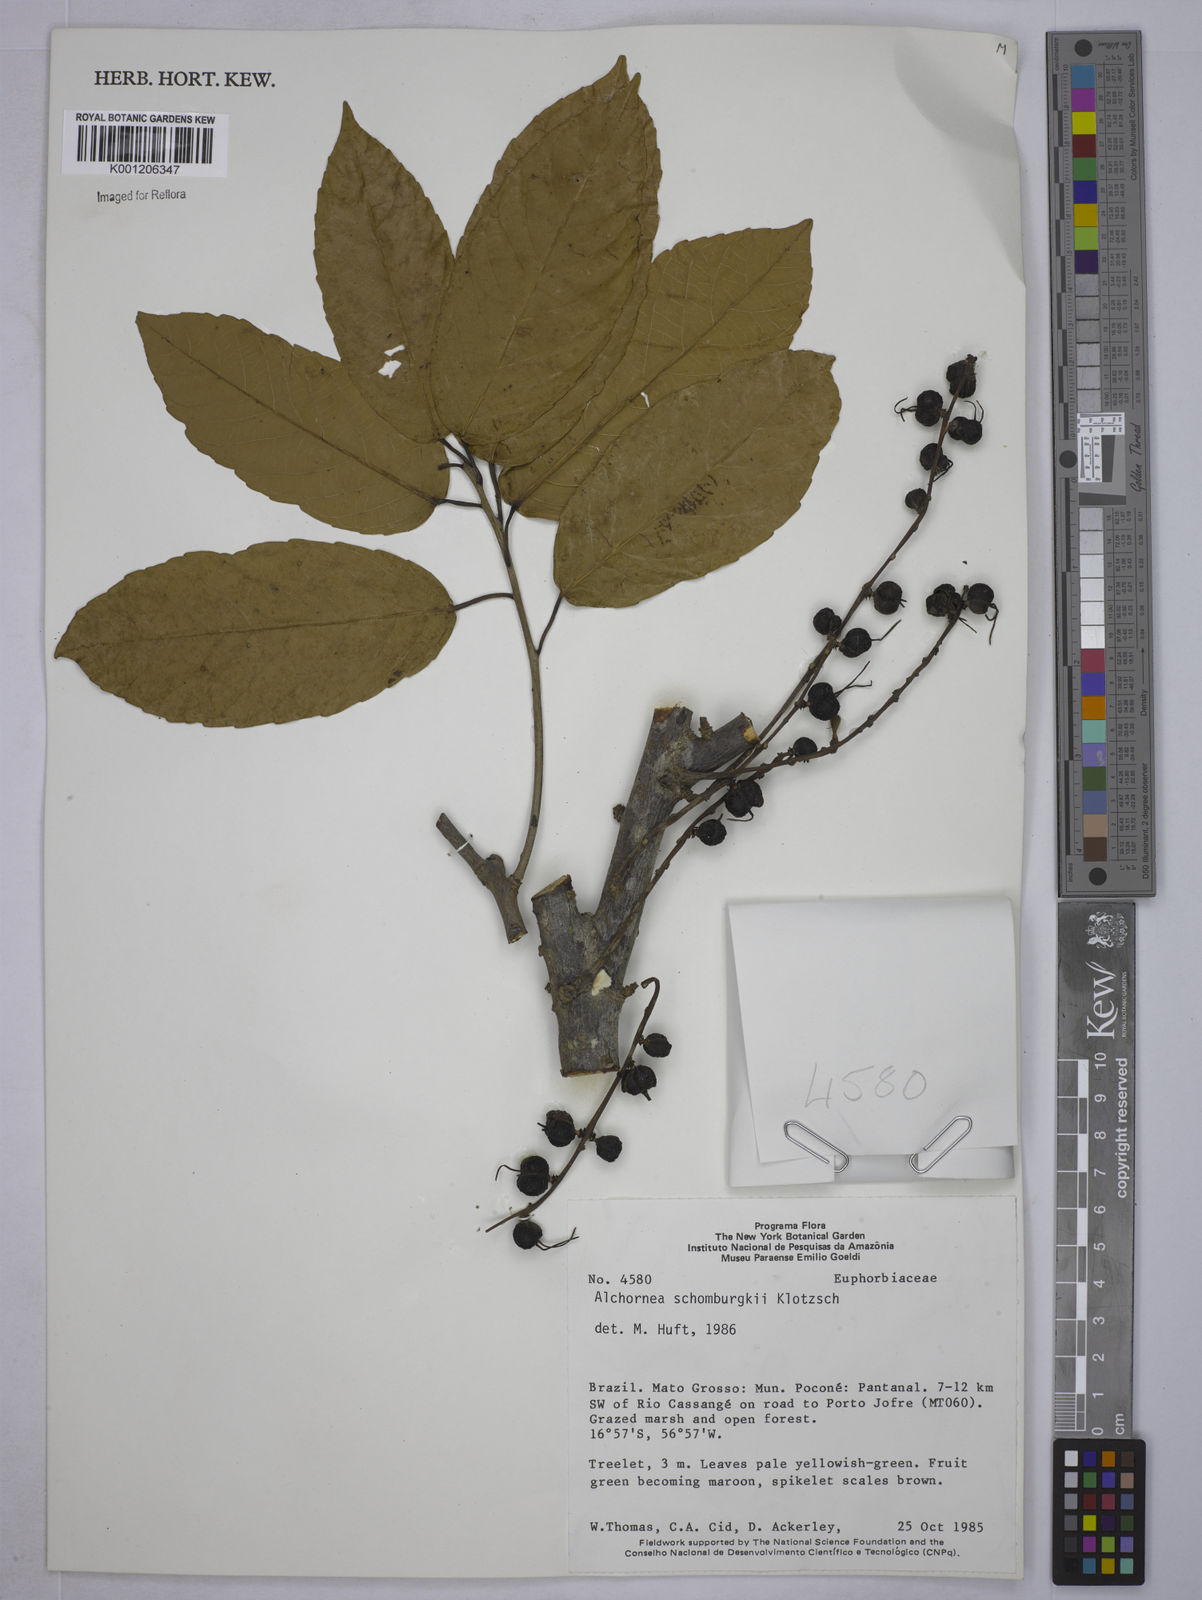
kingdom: Plantae
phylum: Tracheophyta
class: Magnoliopsida
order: Malpighiales
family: Euphorbiaceae
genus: Alchornea
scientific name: Alchornea discolor
